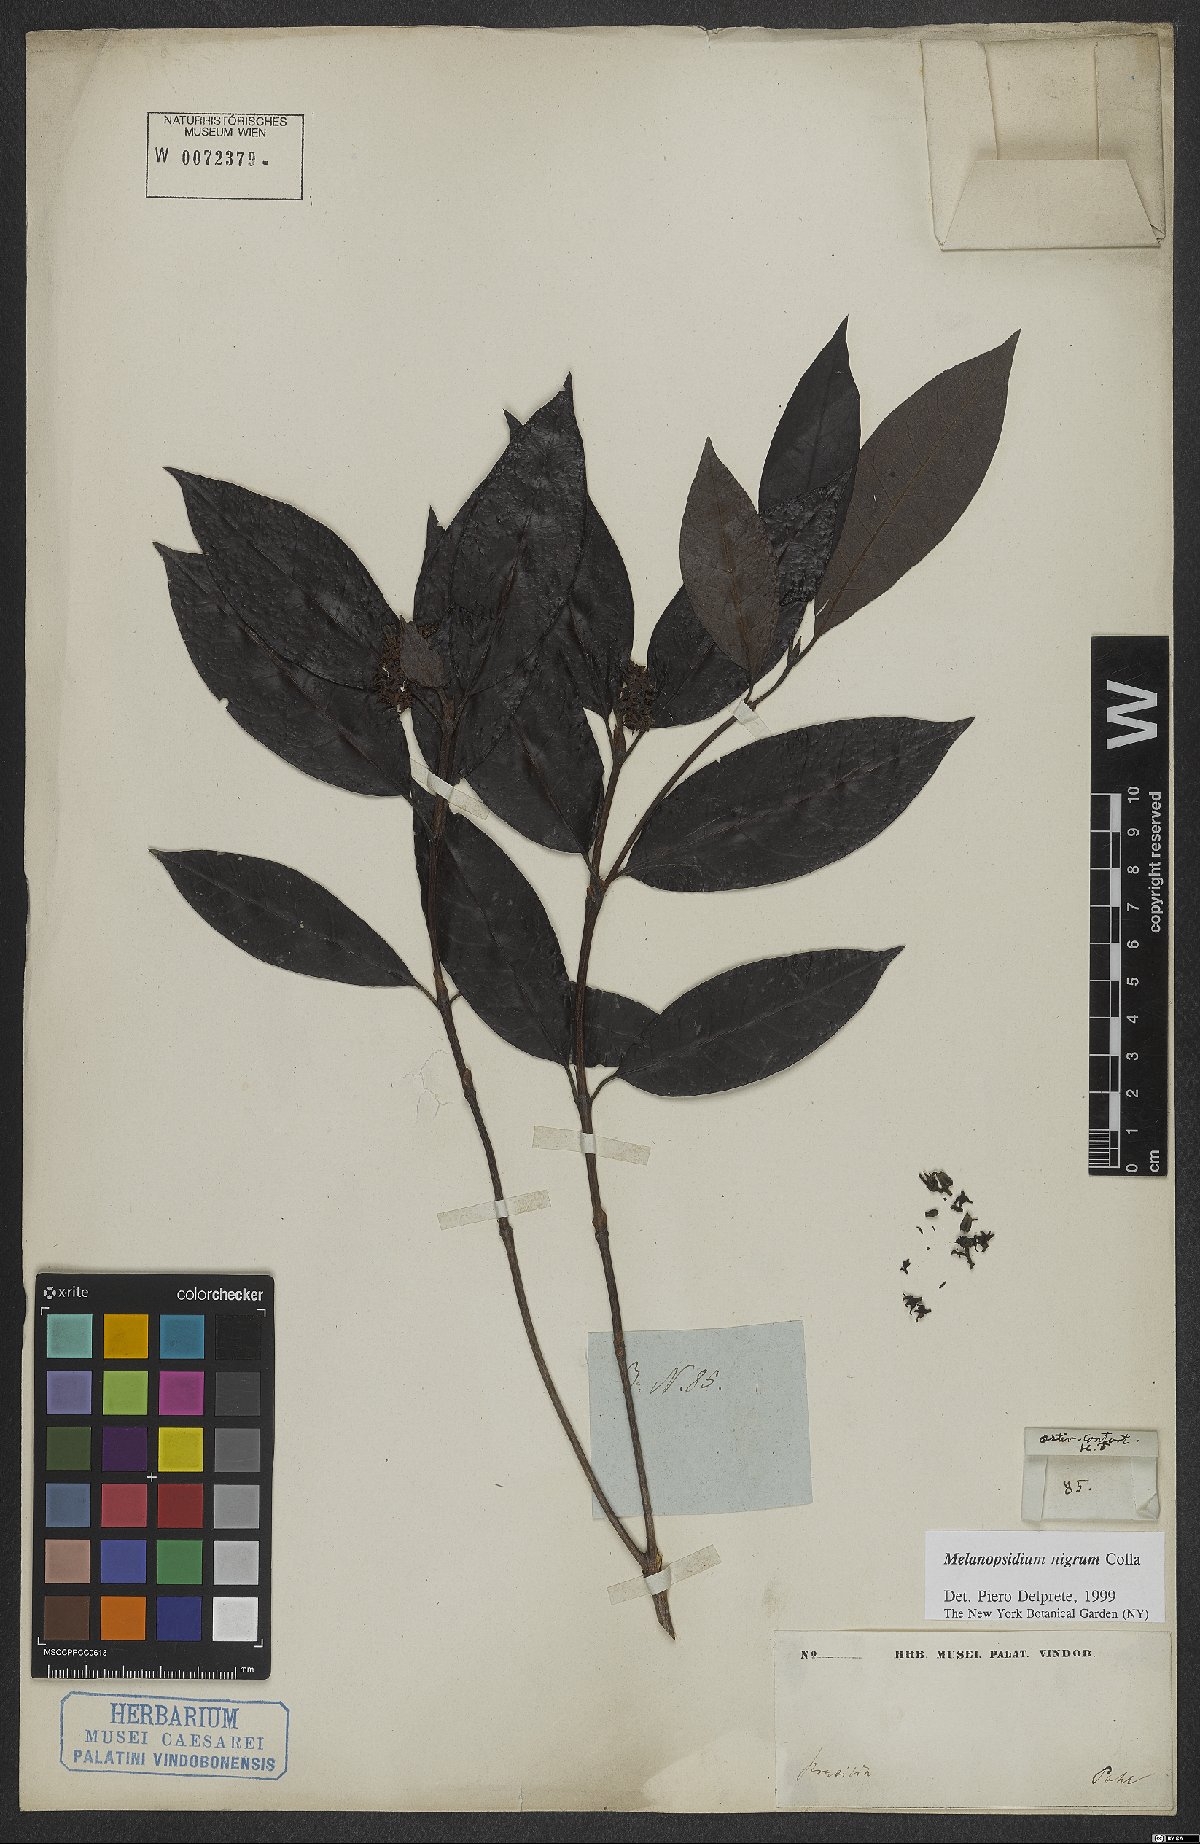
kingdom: Plantae
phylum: Tracheophyta
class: Magnoliopsida
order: Gentianales
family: Rubiaceae
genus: Melanopsidium
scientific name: Melanopsidium nigrum
